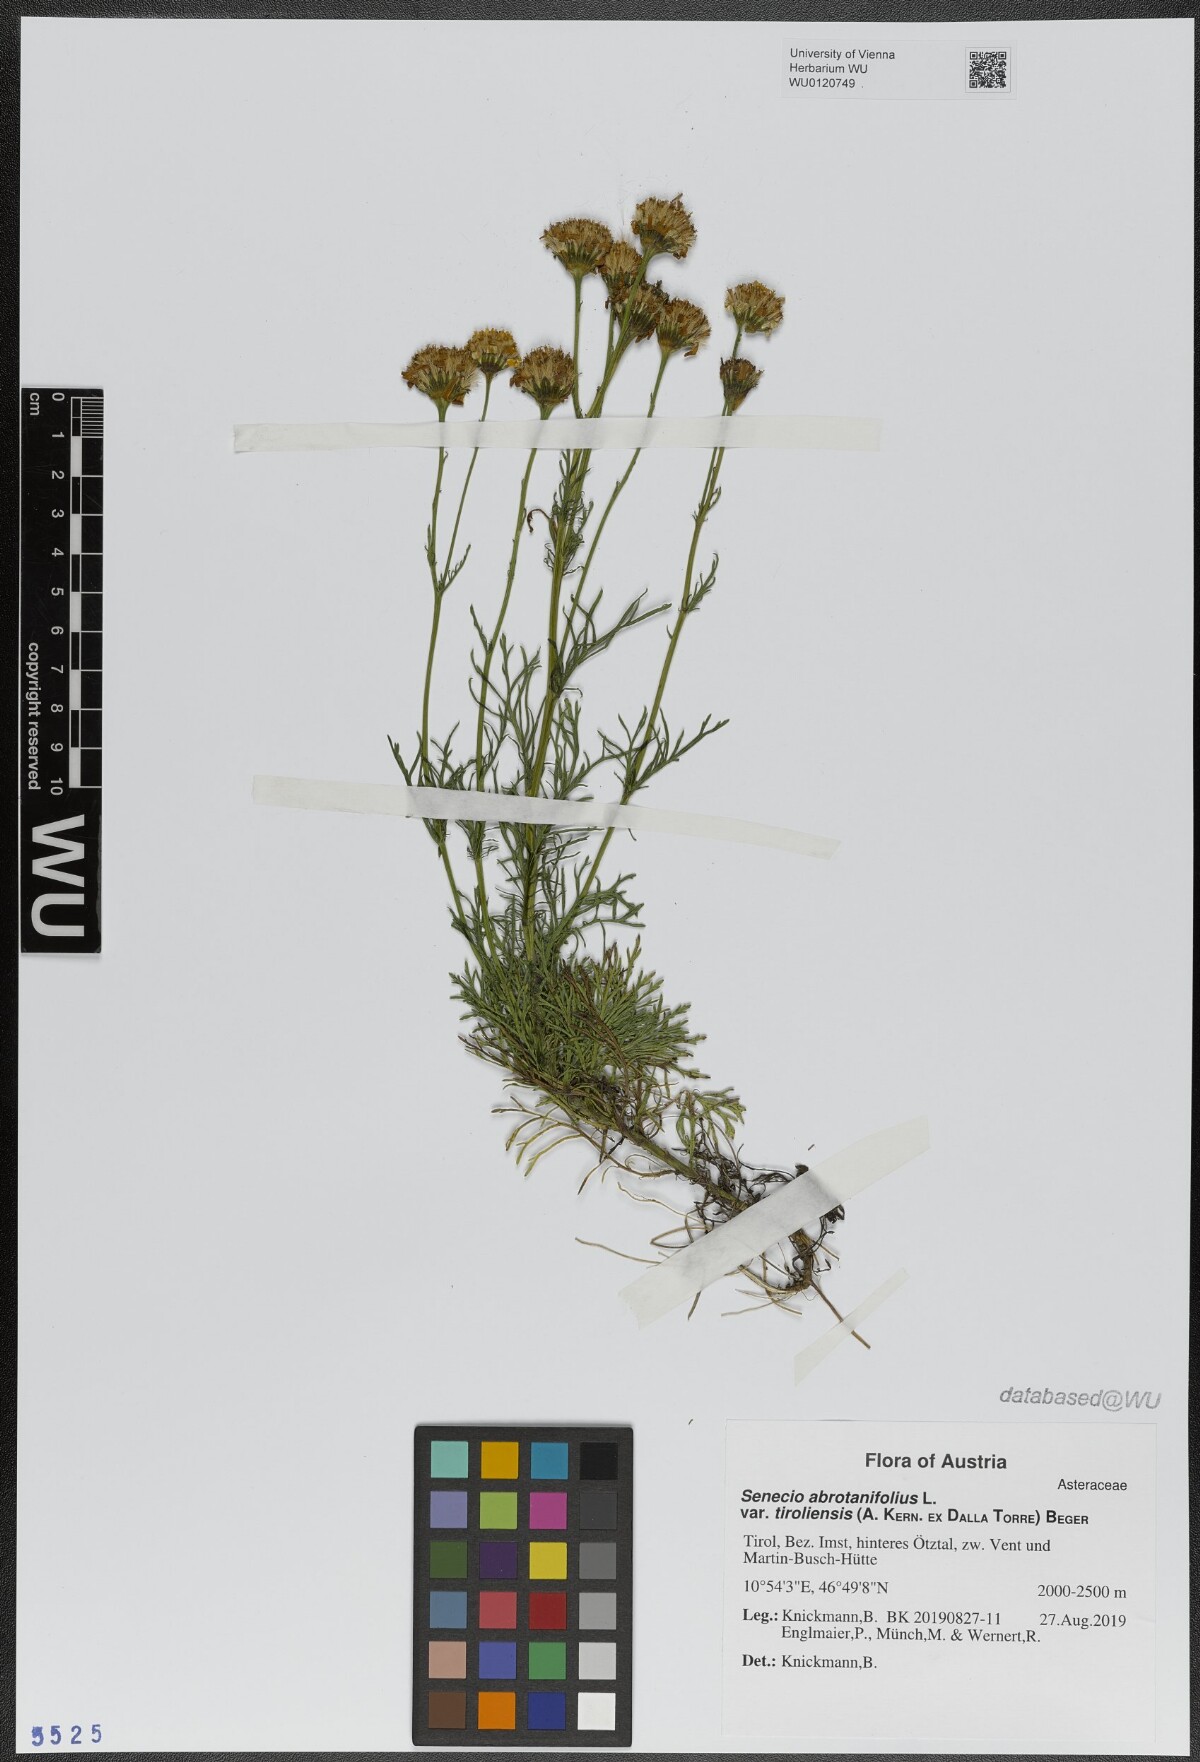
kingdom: Plantae
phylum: Tracheophyta
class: Magnoliopsida
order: Asterales
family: Asteraceae
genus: Senecio
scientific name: Senecio abrotanifolius
